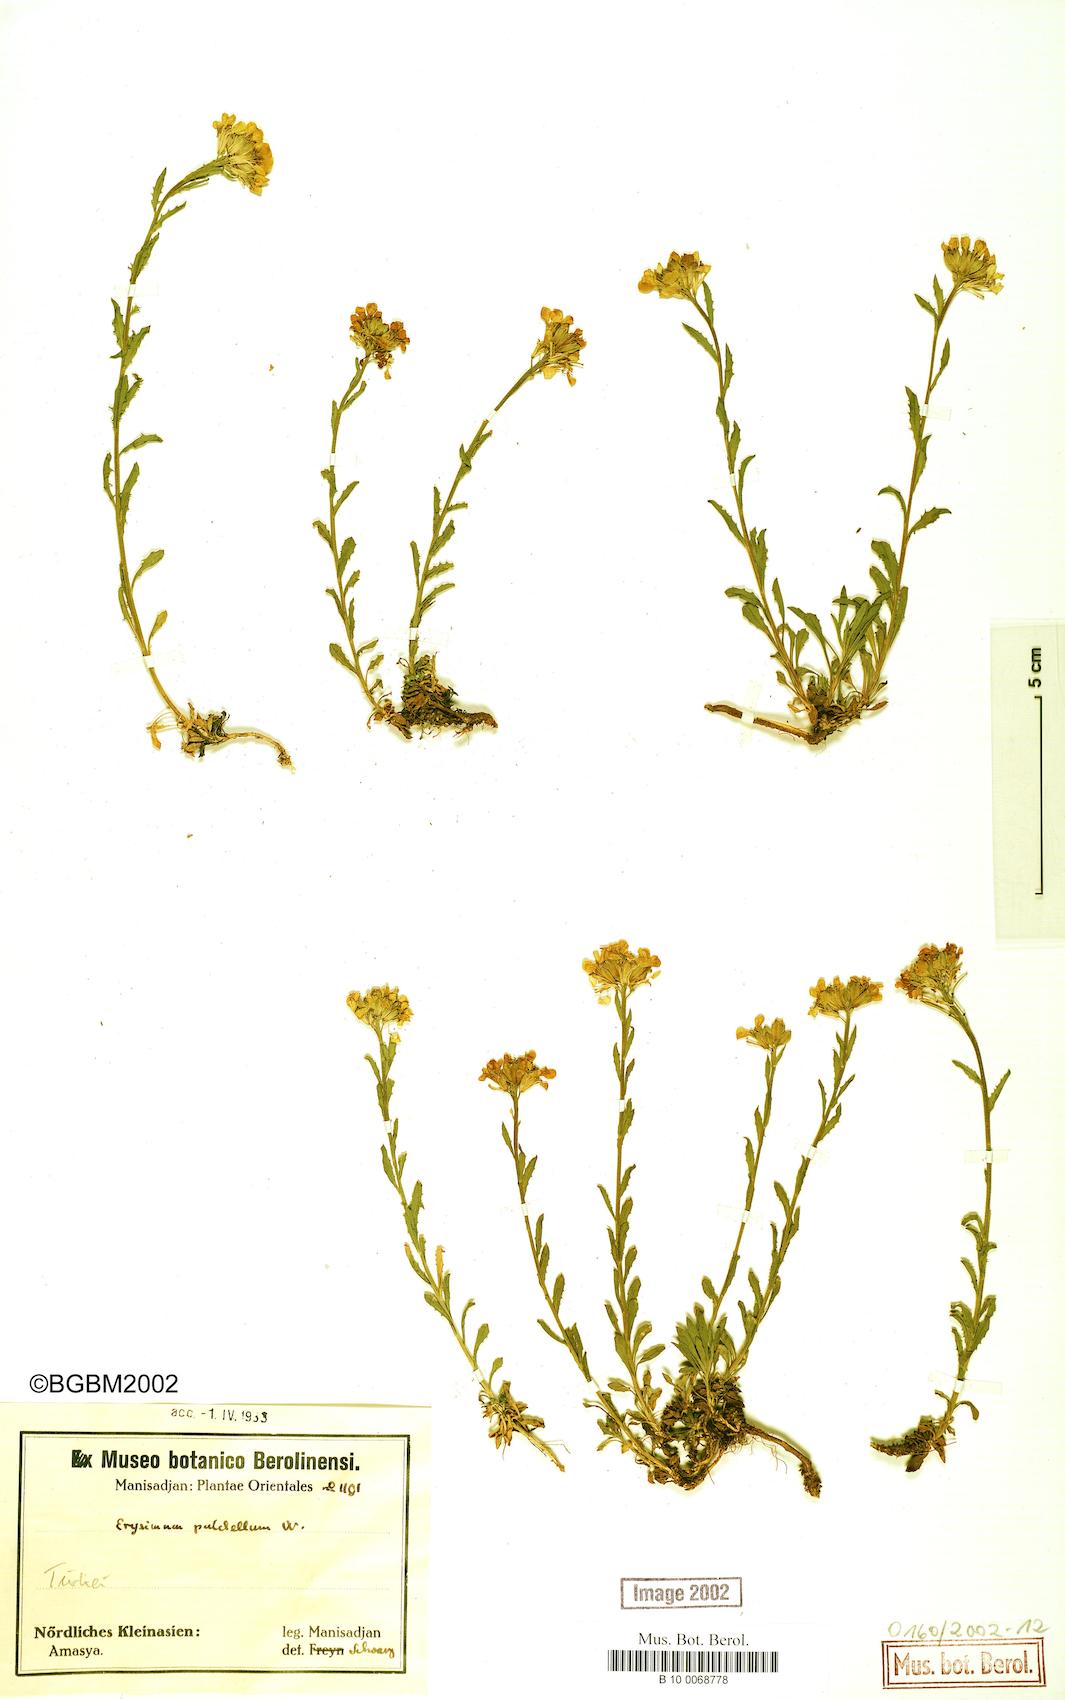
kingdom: Plantae
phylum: Tracheophyta
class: Magnoliopsida
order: Brassicales
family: Brassicaceae
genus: Erysimum
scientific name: Erysimum pulchellum
